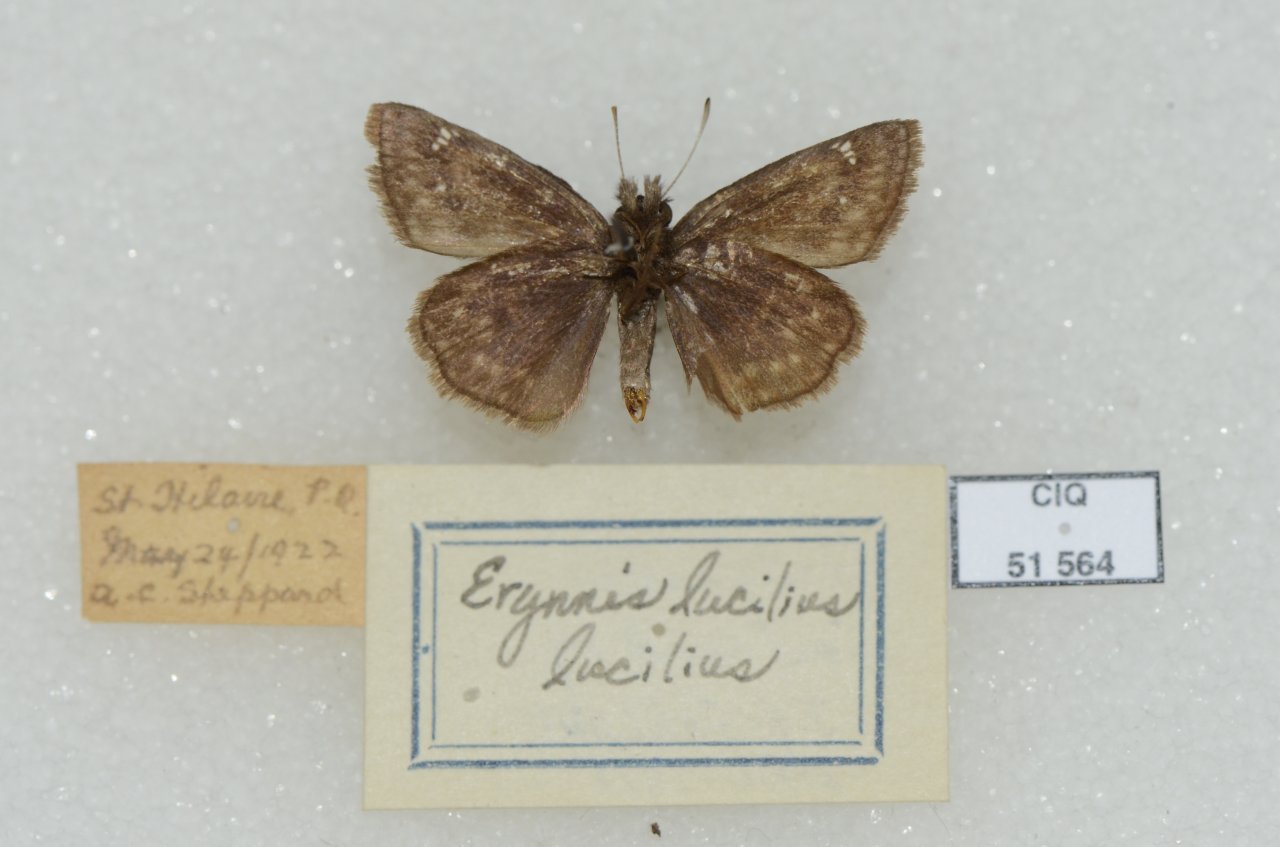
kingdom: Animalia
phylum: Arthropoda
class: Insecta
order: Lepidoptera
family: Hesperiidae
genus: Gesta
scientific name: Gesta
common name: Columbine Duskywing
